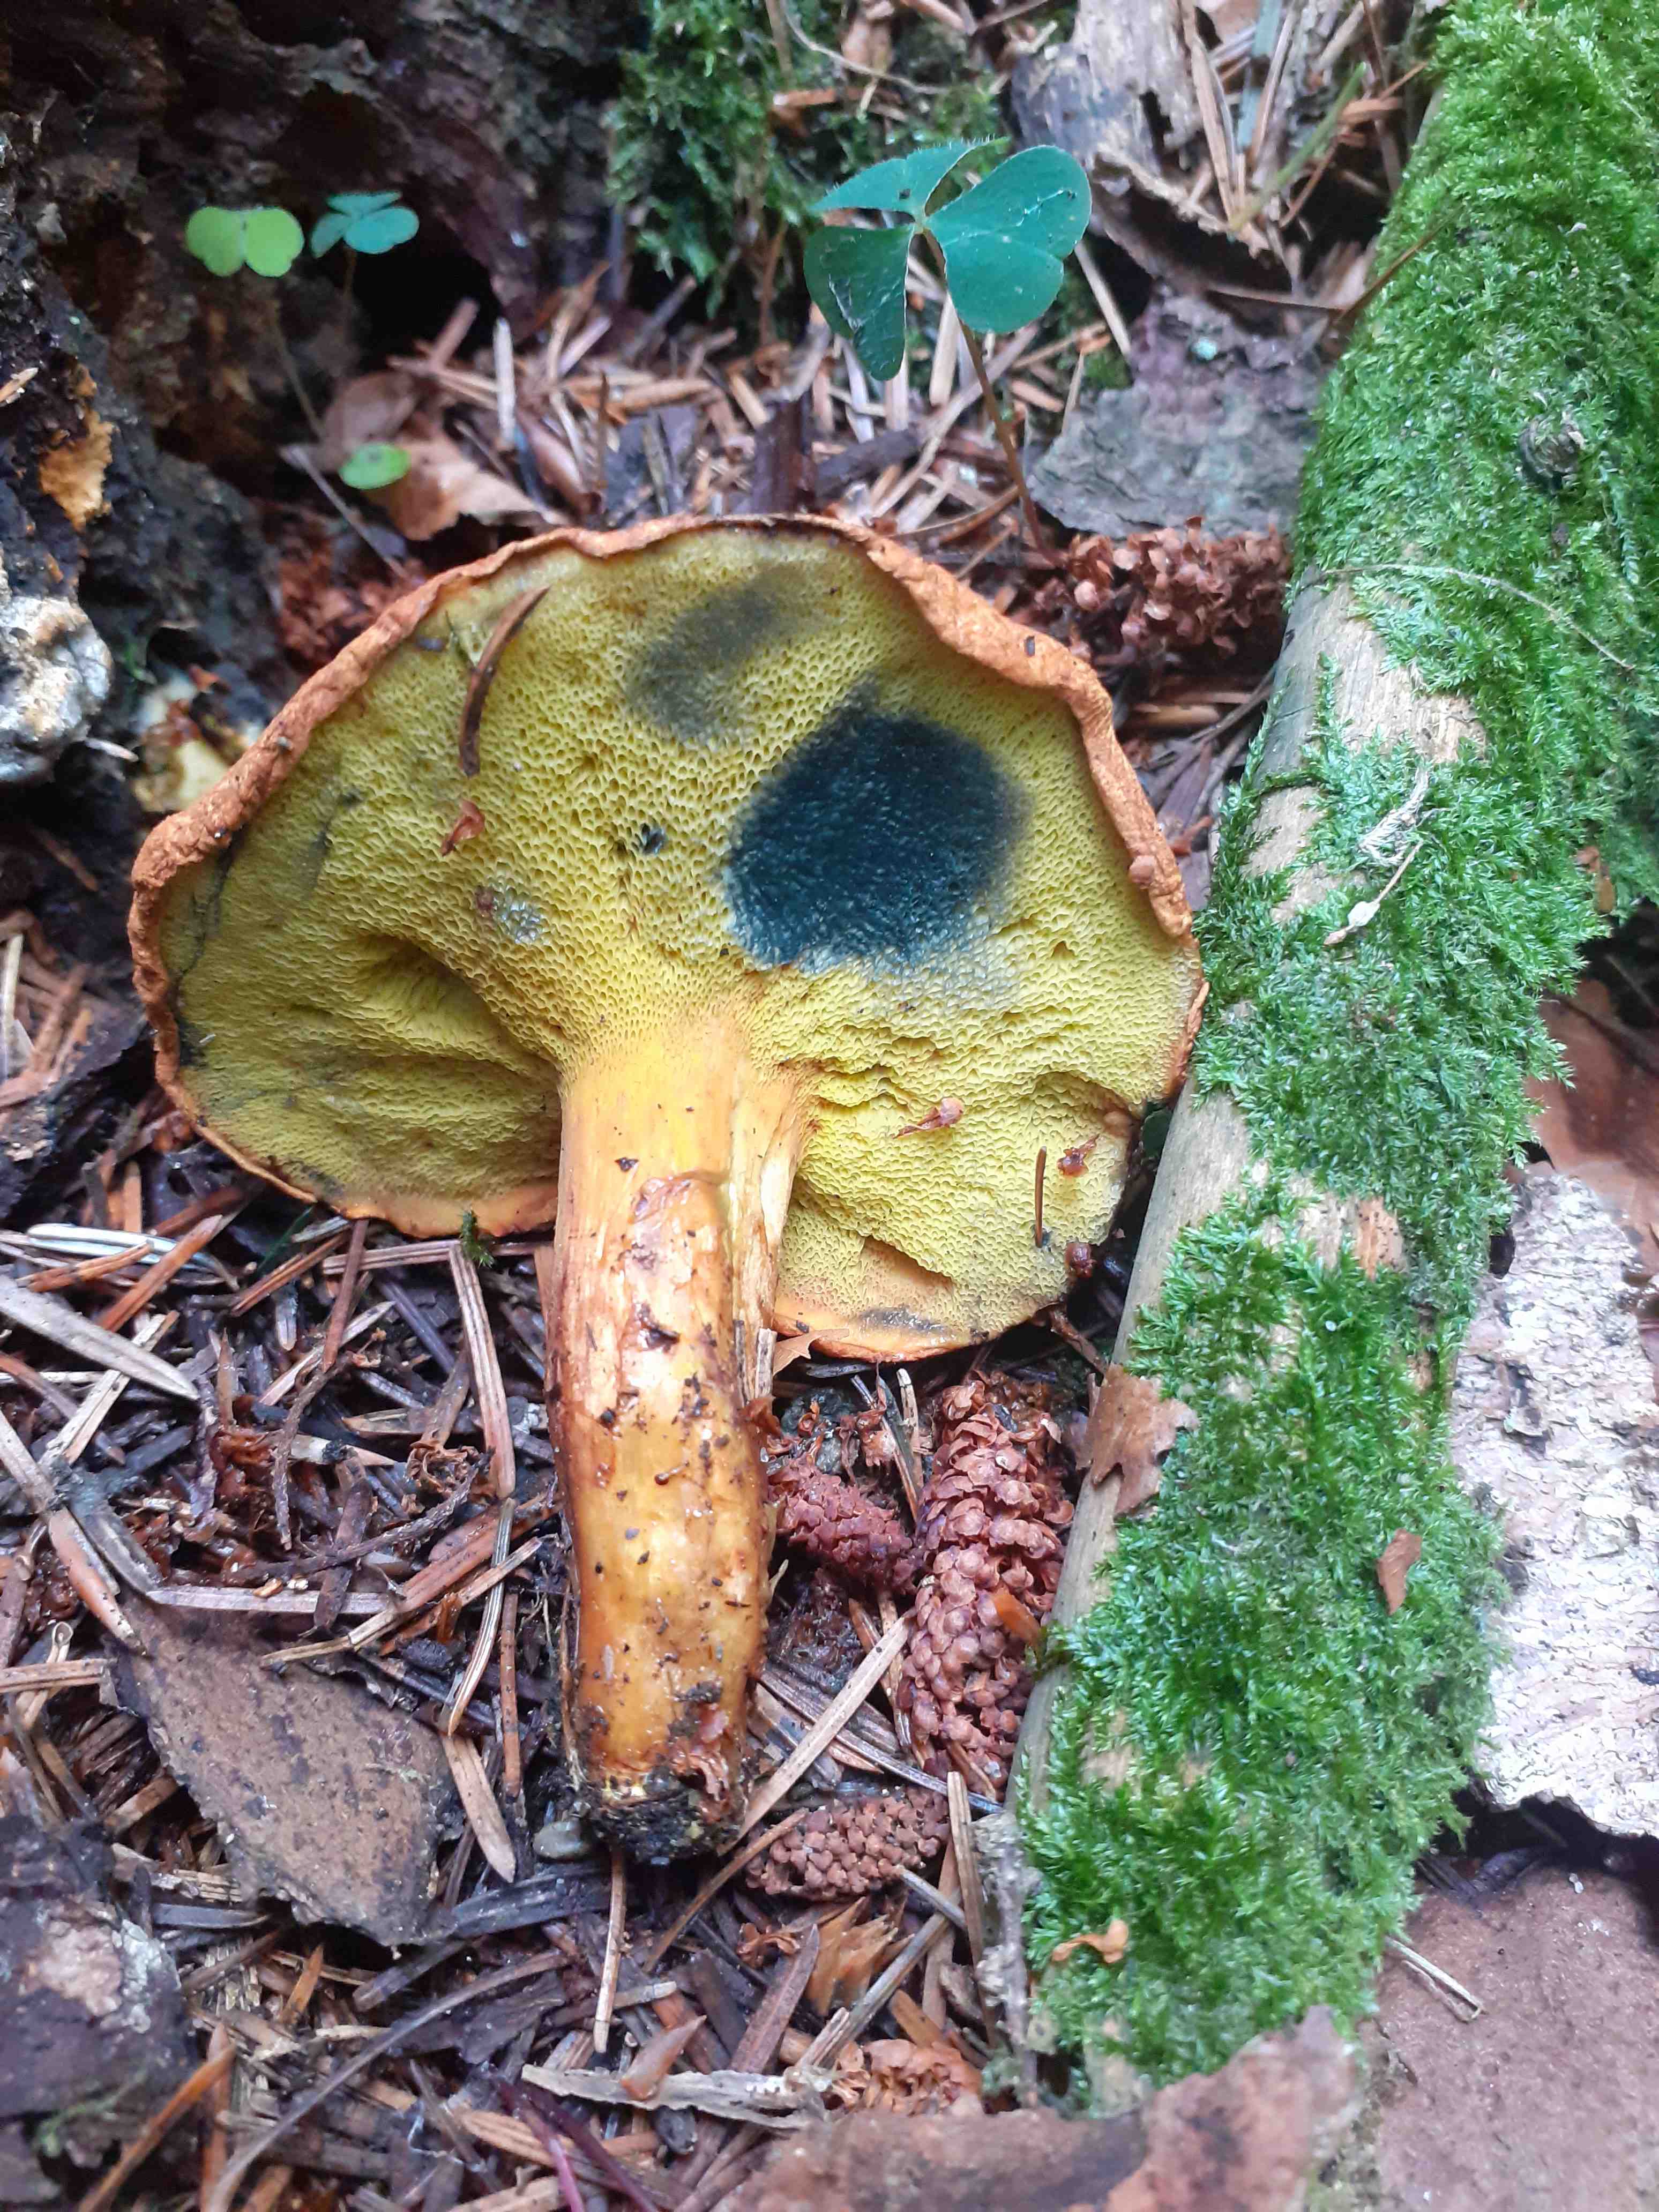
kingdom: Fungi
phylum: Basidiomycota
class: Agaricomycetes
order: Boletales
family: Boletaceae
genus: Buchwaldoboletus
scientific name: Buchwaldoboletus lignicola
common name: stødrørhat
